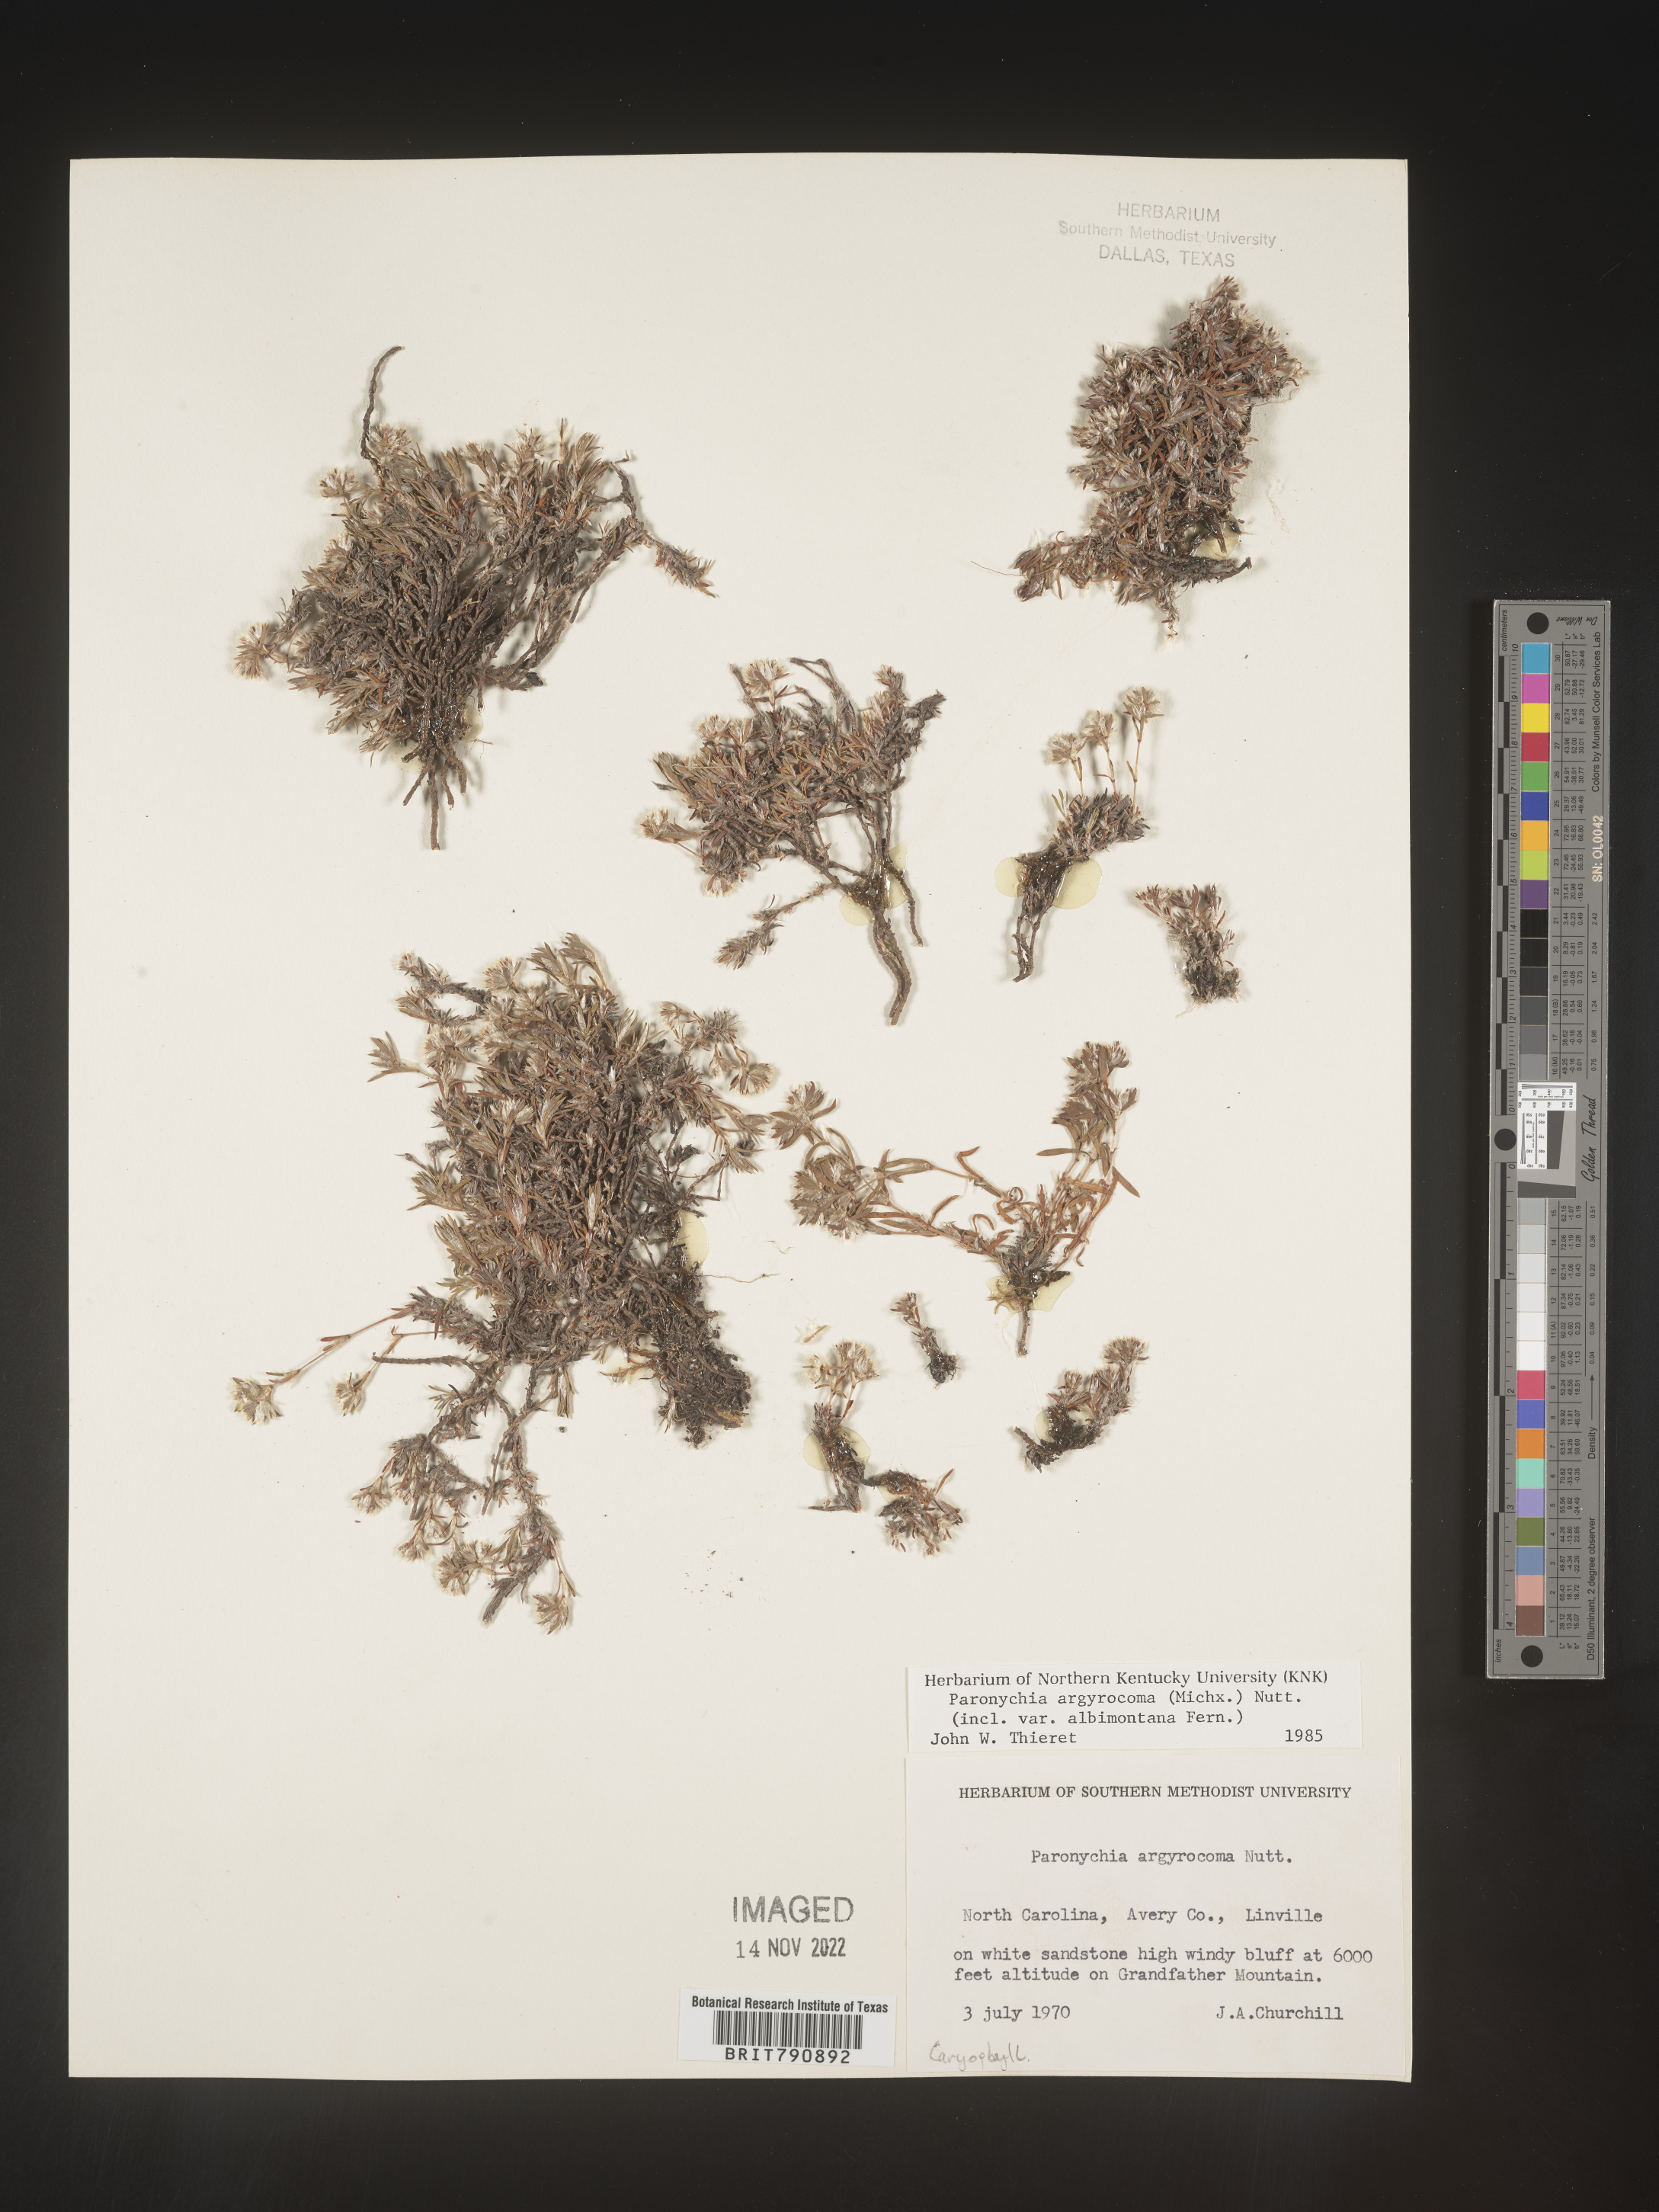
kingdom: Plantae
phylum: Tracheophyta
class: Magnoliopsida
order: Caryophyllales
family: Caryophyllaceae
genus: Paronychia
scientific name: Paronychia argyrocoma
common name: Silverling
